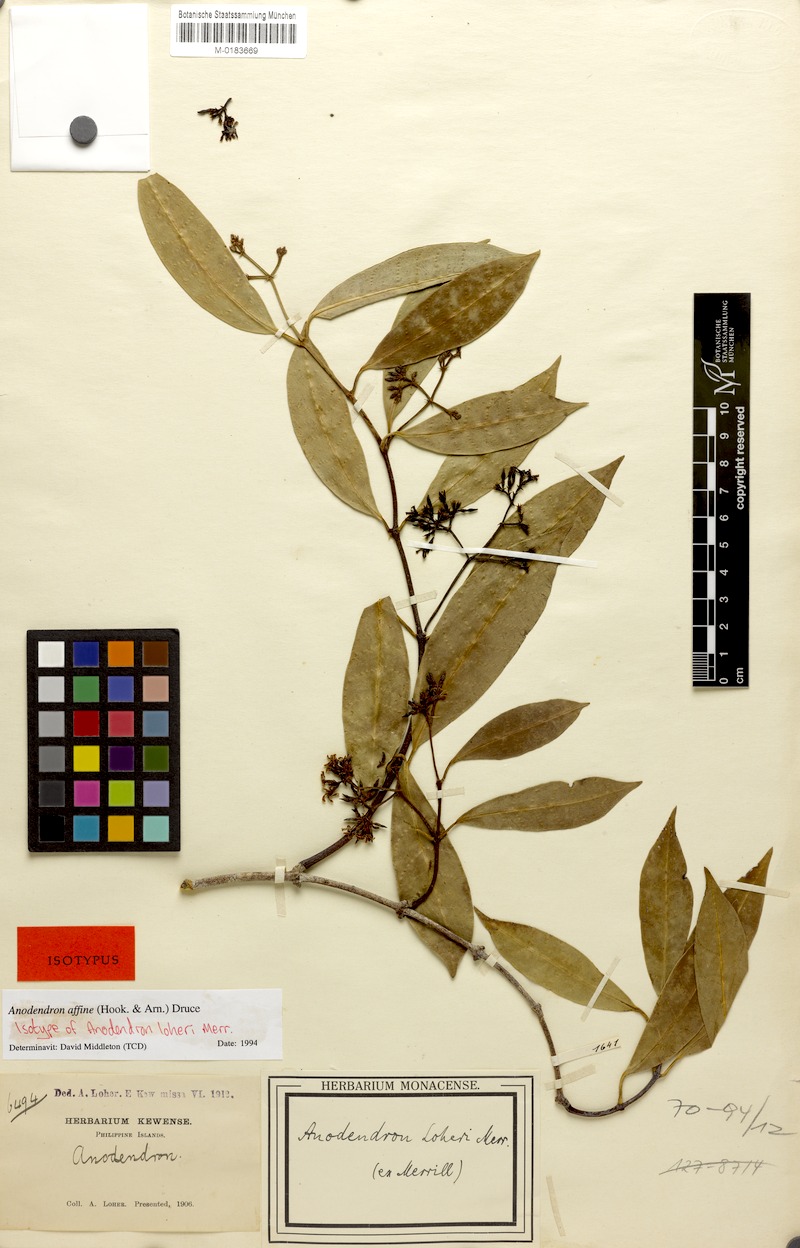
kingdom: Plantae
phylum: Tracheophyta
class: Magnoliopsida
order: Gentianales
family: Apocynaceae
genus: Anodendron
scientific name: Anodendron affine
